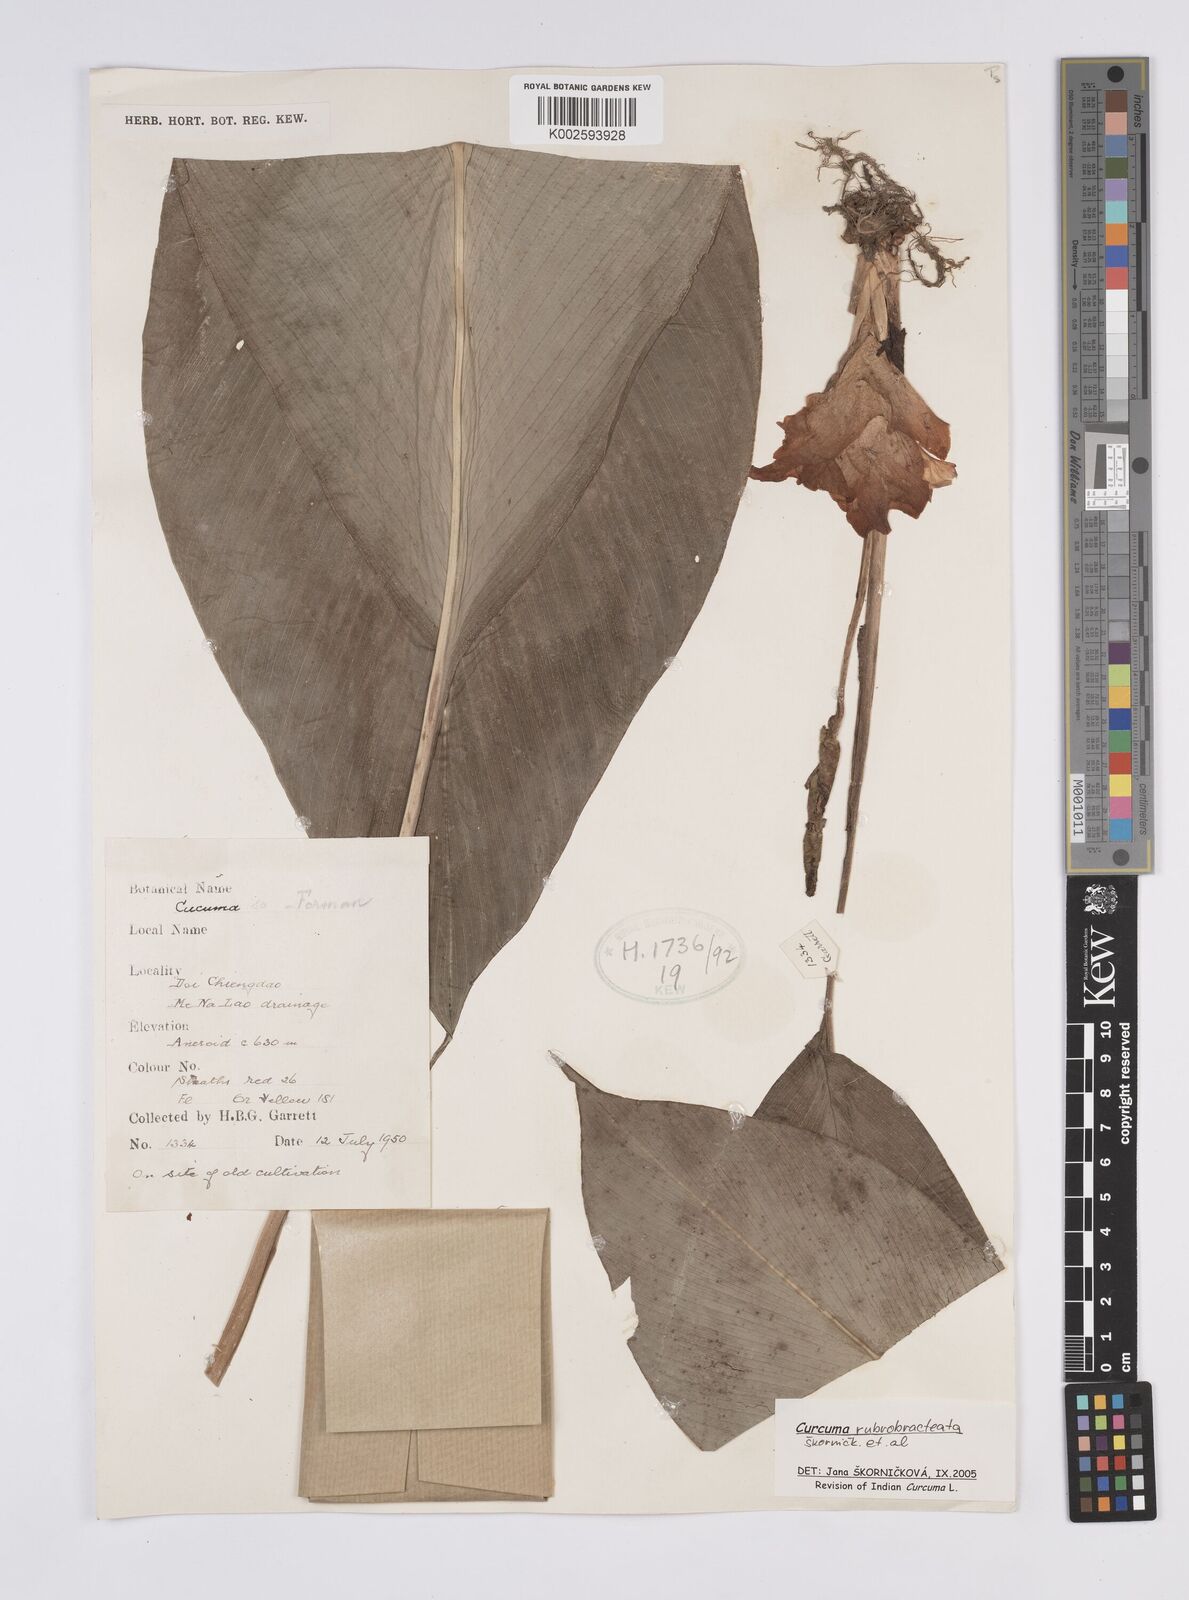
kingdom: Plantae
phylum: Tracheophyta
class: Liliopsida
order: Zingiberales
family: Zingiberaceae
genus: Curcuma
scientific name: Curcuma rubrobracteata
